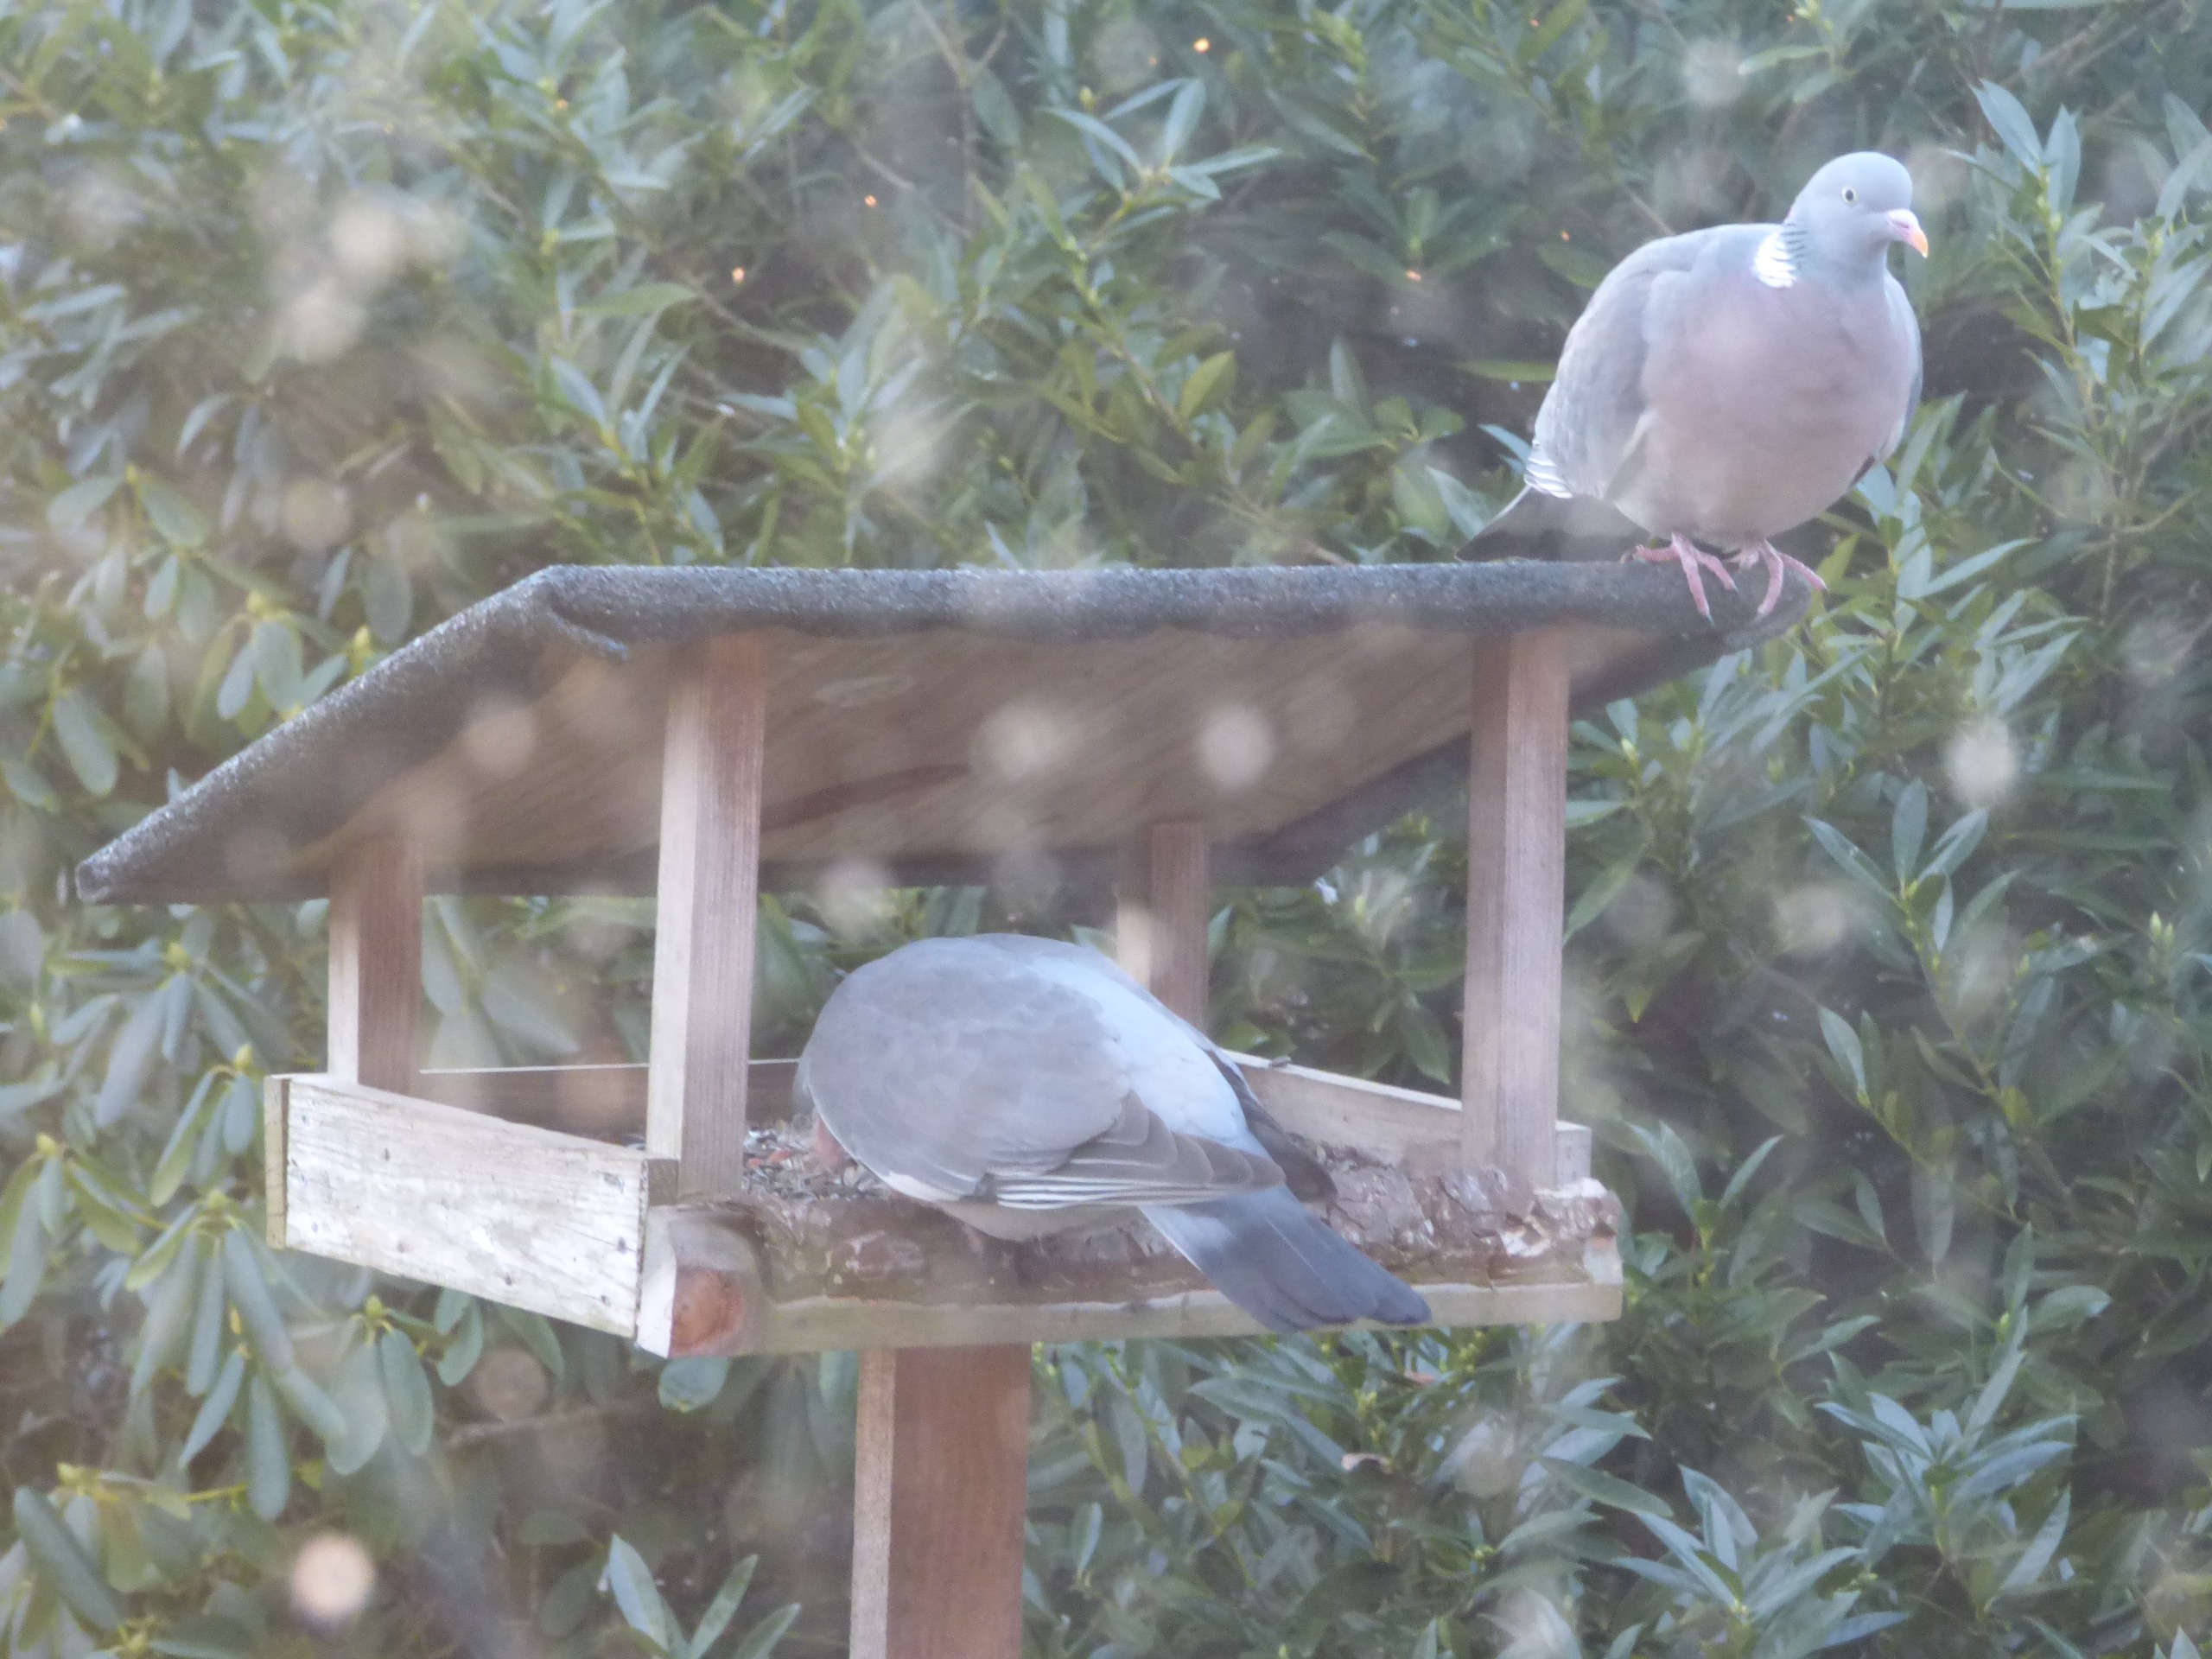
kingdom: Animalia
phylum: Chordata
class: Aves
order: Columbiformes
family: Columbidae
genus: Columba
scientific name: Columba palumbus
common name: Ringdue
